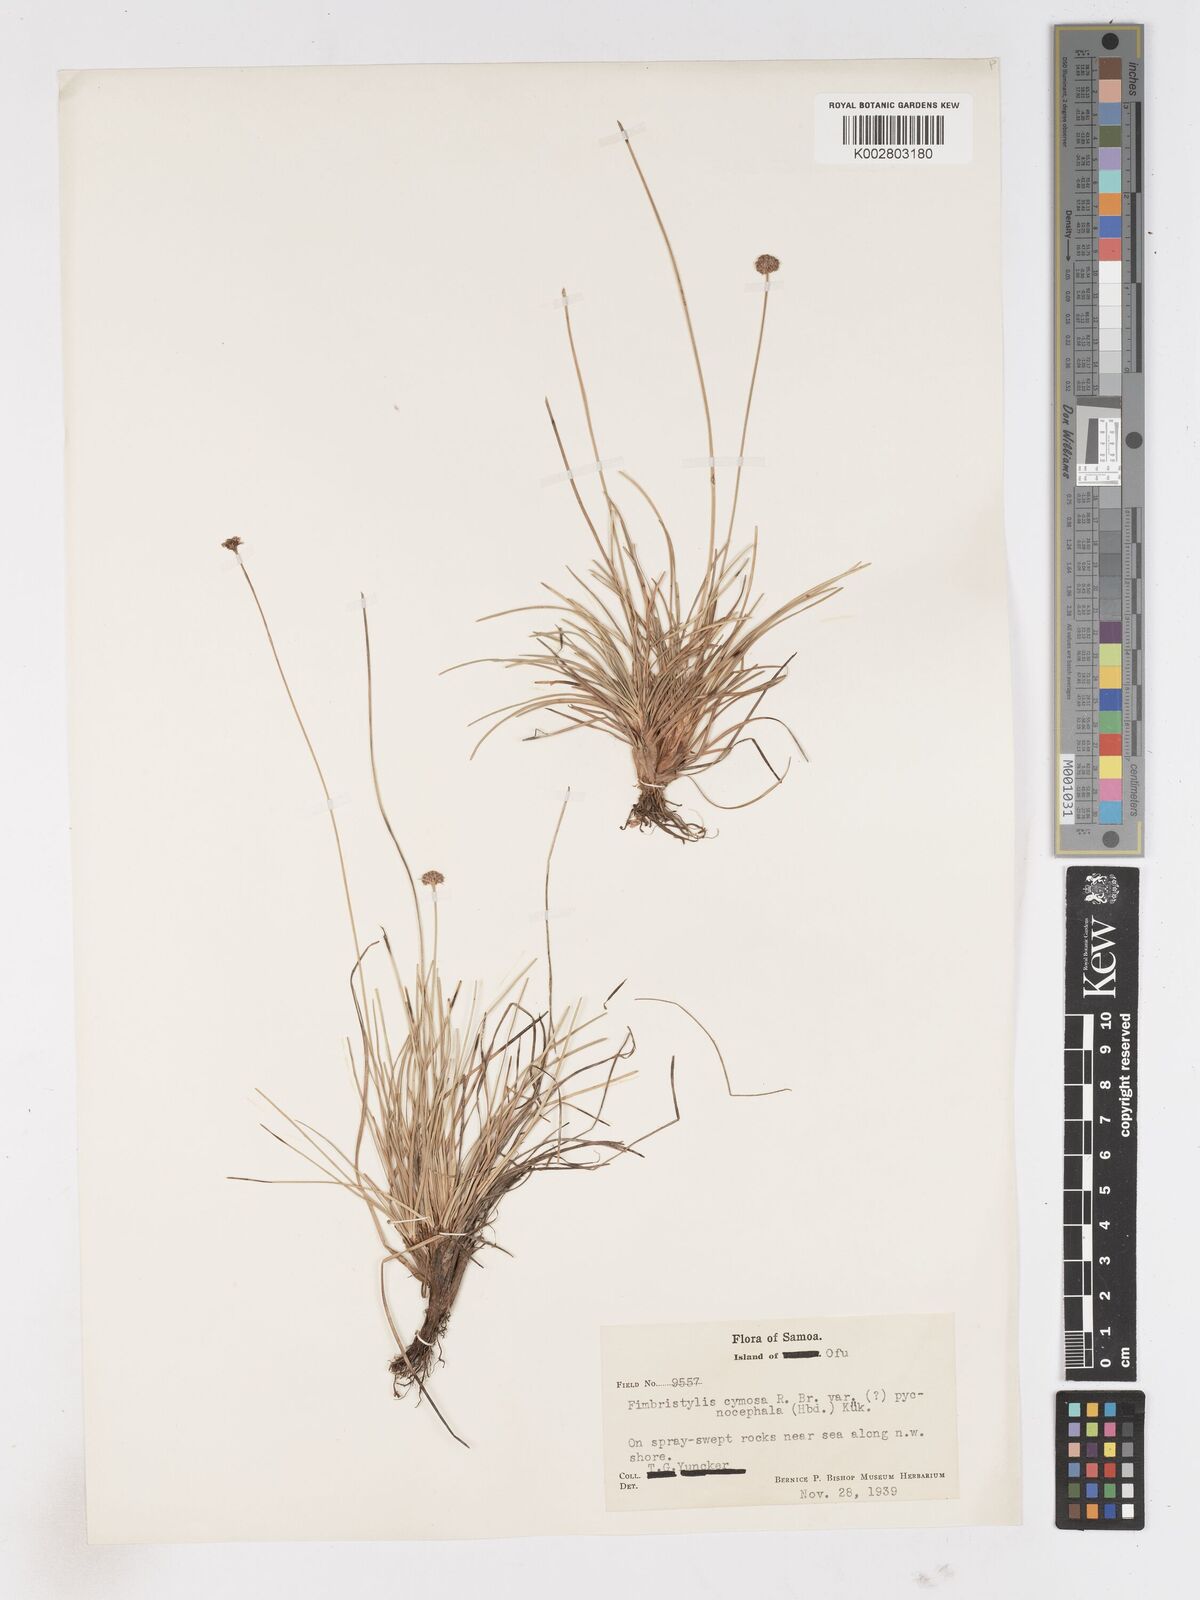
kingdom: Plantae
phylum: Tracheophyta
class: Liliopsida
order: Poales
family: Cyperaceae
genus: Fimbristylis
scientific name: Fimbristylis cymosa
